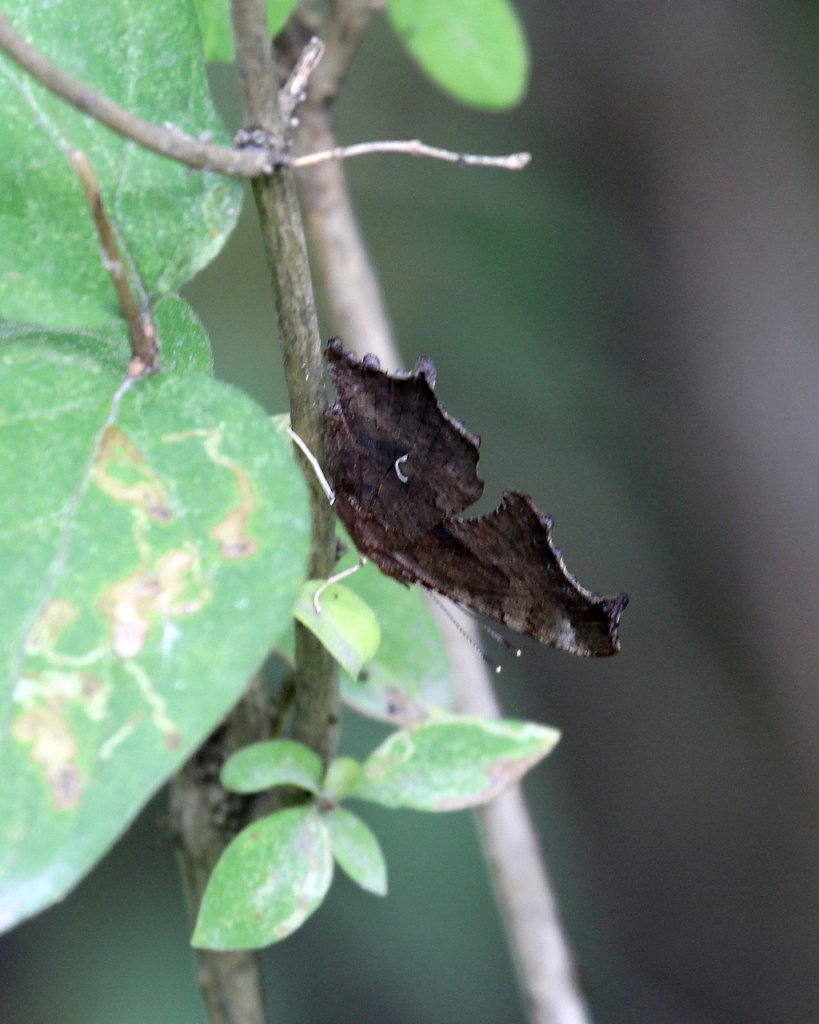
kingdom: Animalia
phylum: Arthropoda
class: Insecta
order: Lepidoptera
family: Nymphalidae
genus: Polygonia
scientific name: Polygonia comma
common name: Eastern Comma
